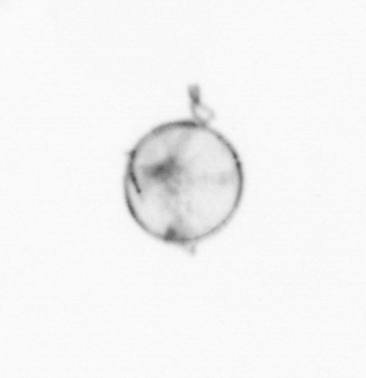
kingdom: Chromista
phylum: Myzozoa
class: Dinophyceae
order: Noctilucales
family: Noctilucaceae
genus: Noctiluca
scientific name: Noctiluca scintillans
